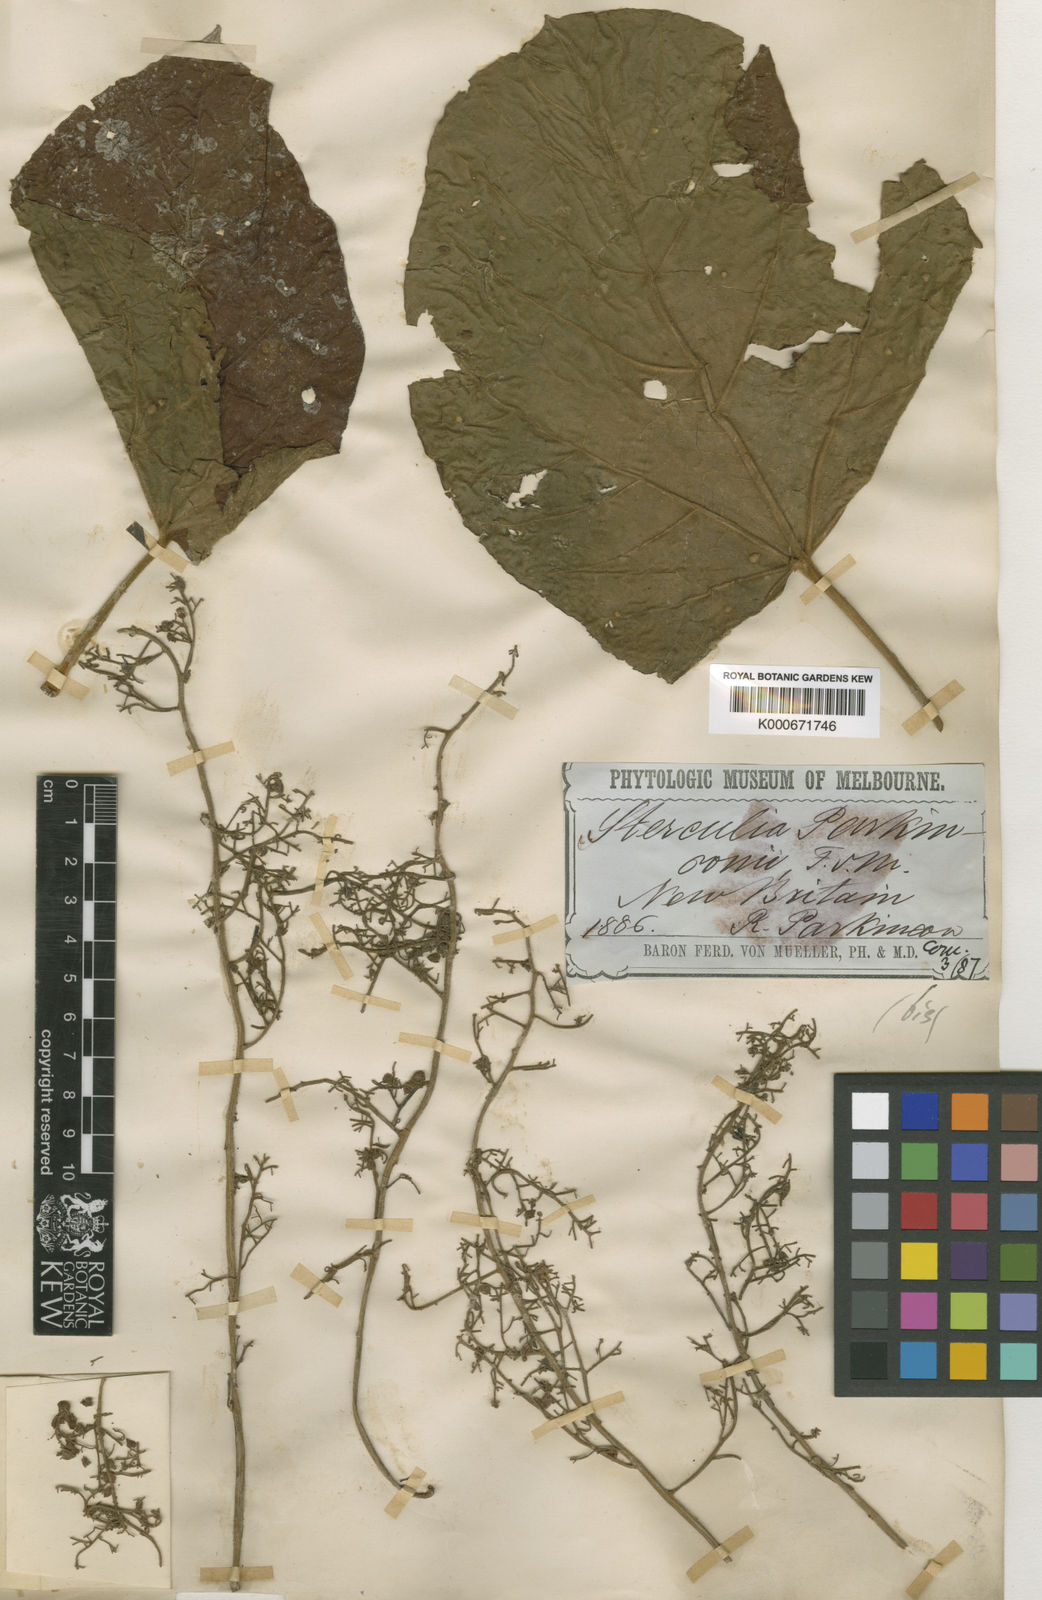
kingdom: Plantae
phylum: Tracheophyta
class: Magnoliopsida
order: Malvales
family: Malvaceae
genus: Sterculia
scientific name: Sterculia macrophylla
